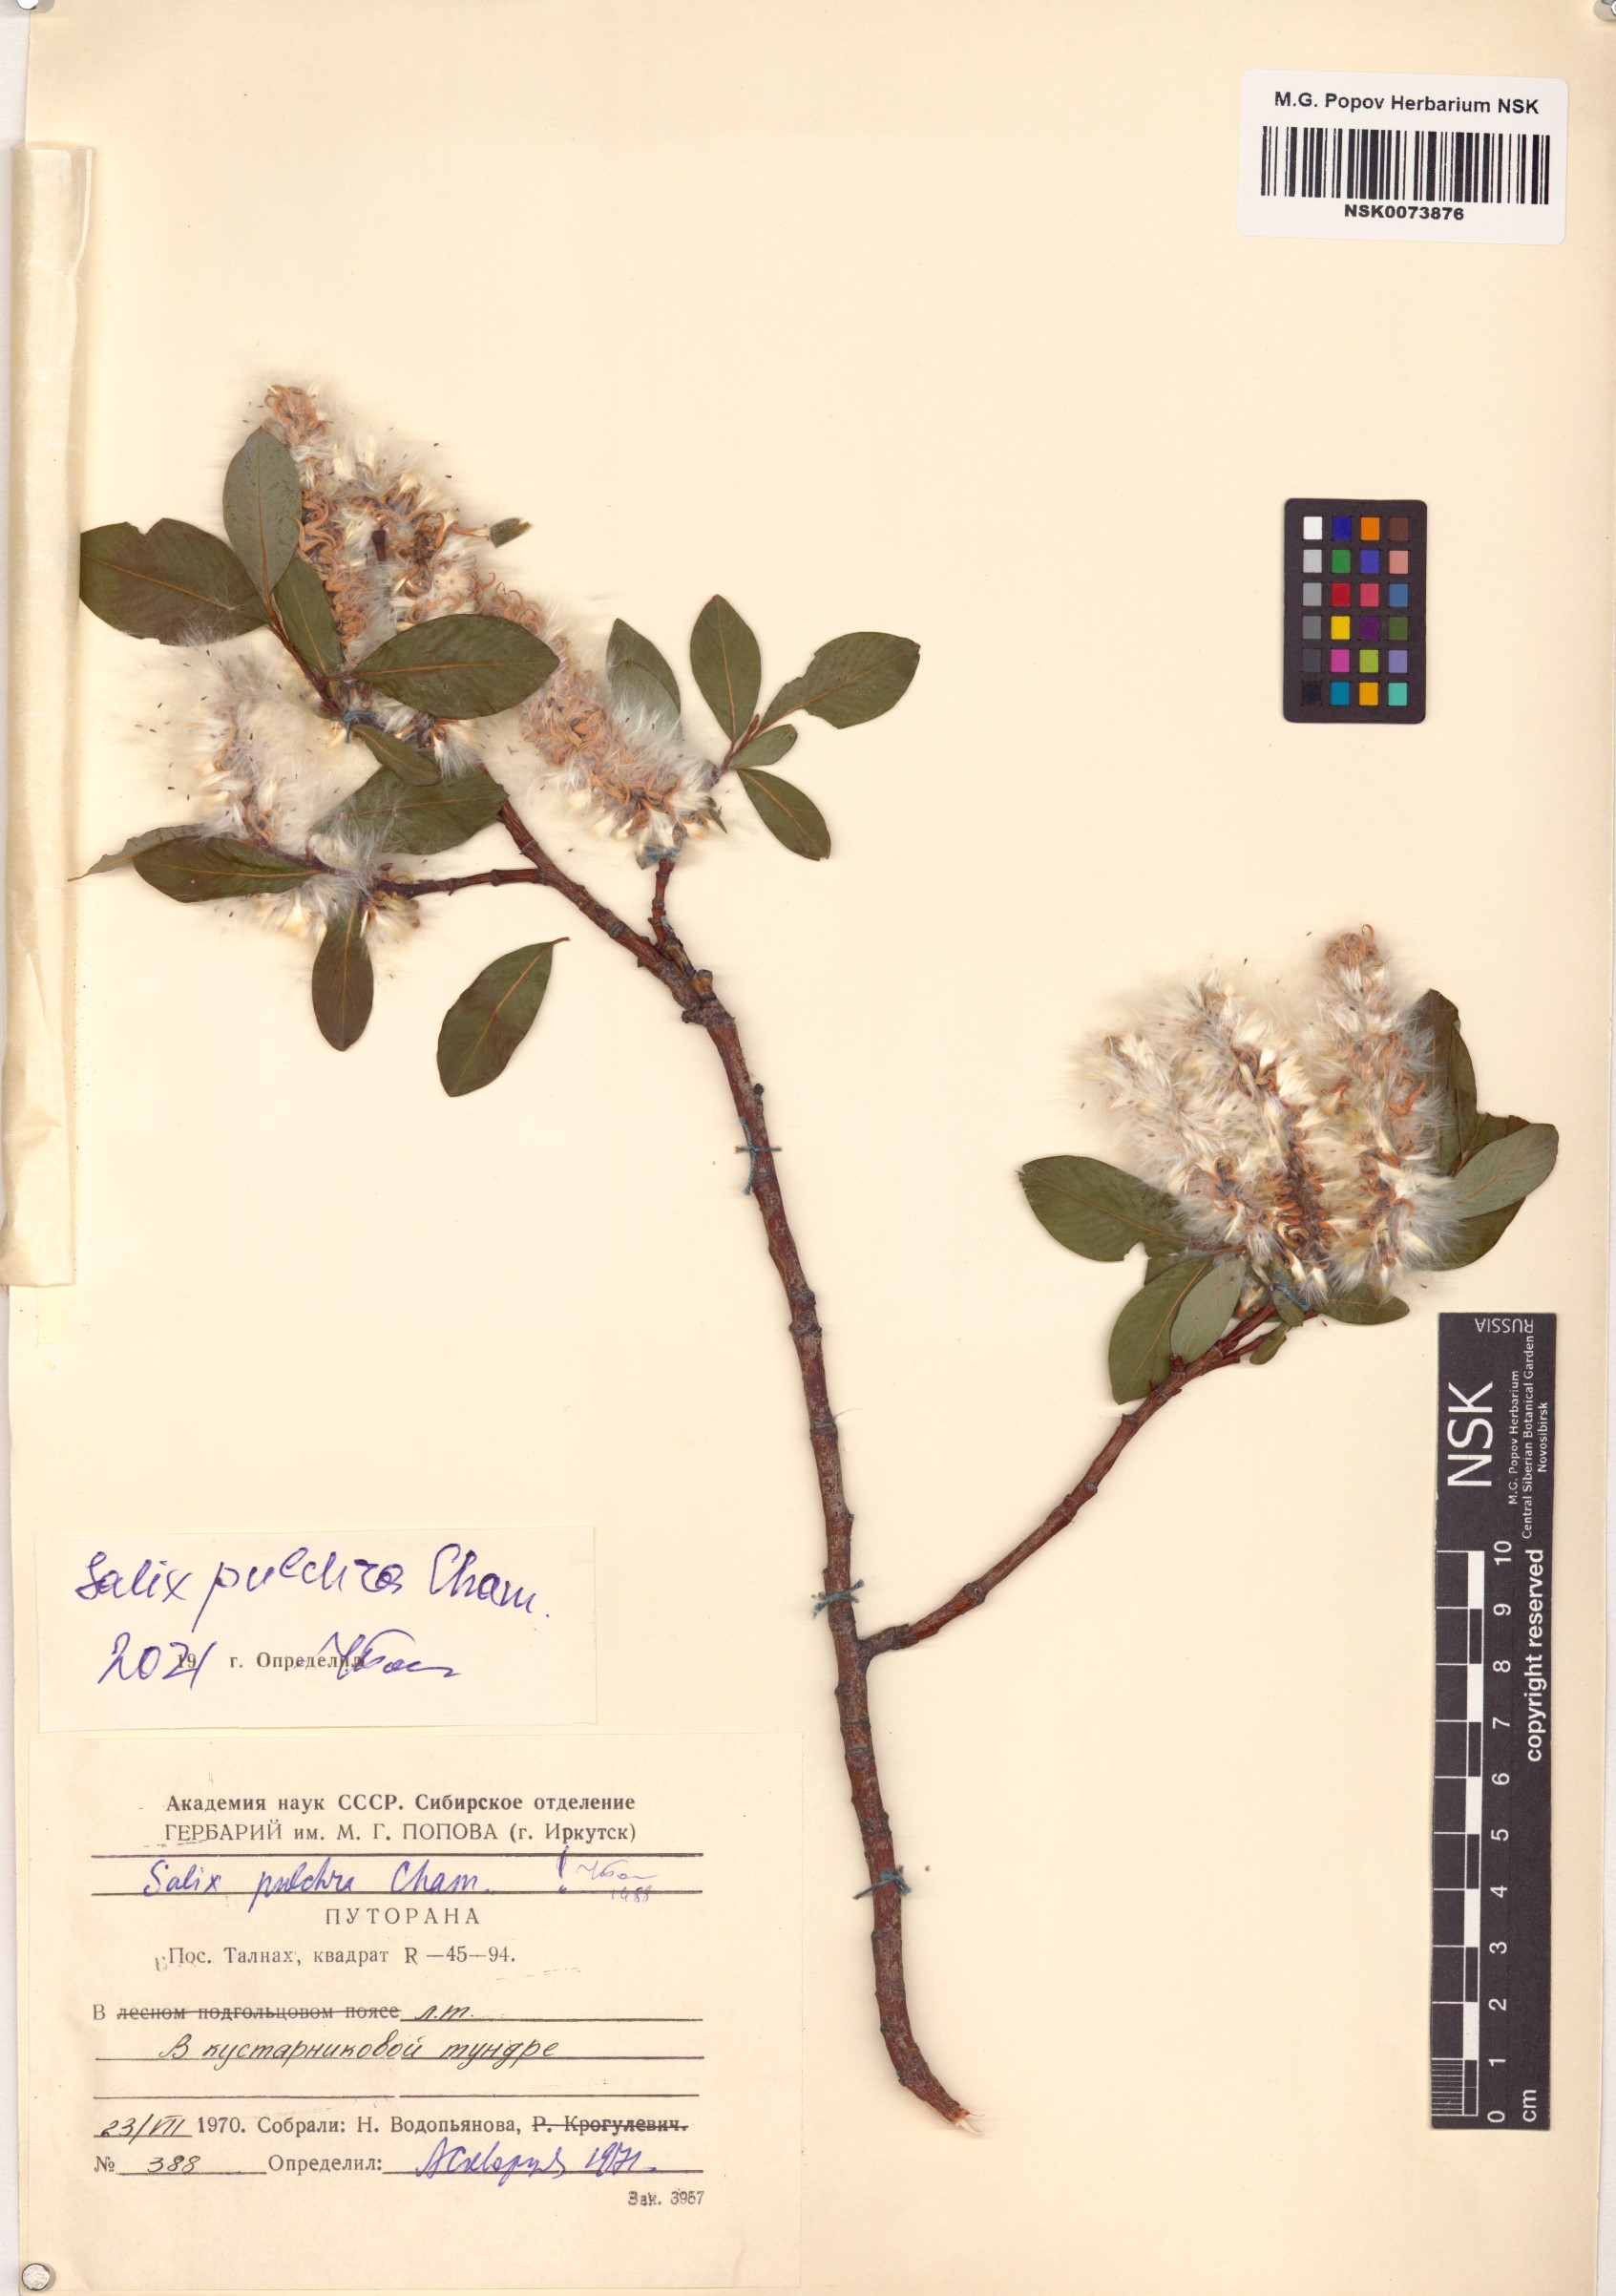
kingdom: Plantae
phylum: Tracheophyta
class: Magnoliopsida
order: Malpighiales
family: Salicaceae
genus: Salix
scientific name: Salix pulchra
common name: Diamond-leaved willow
